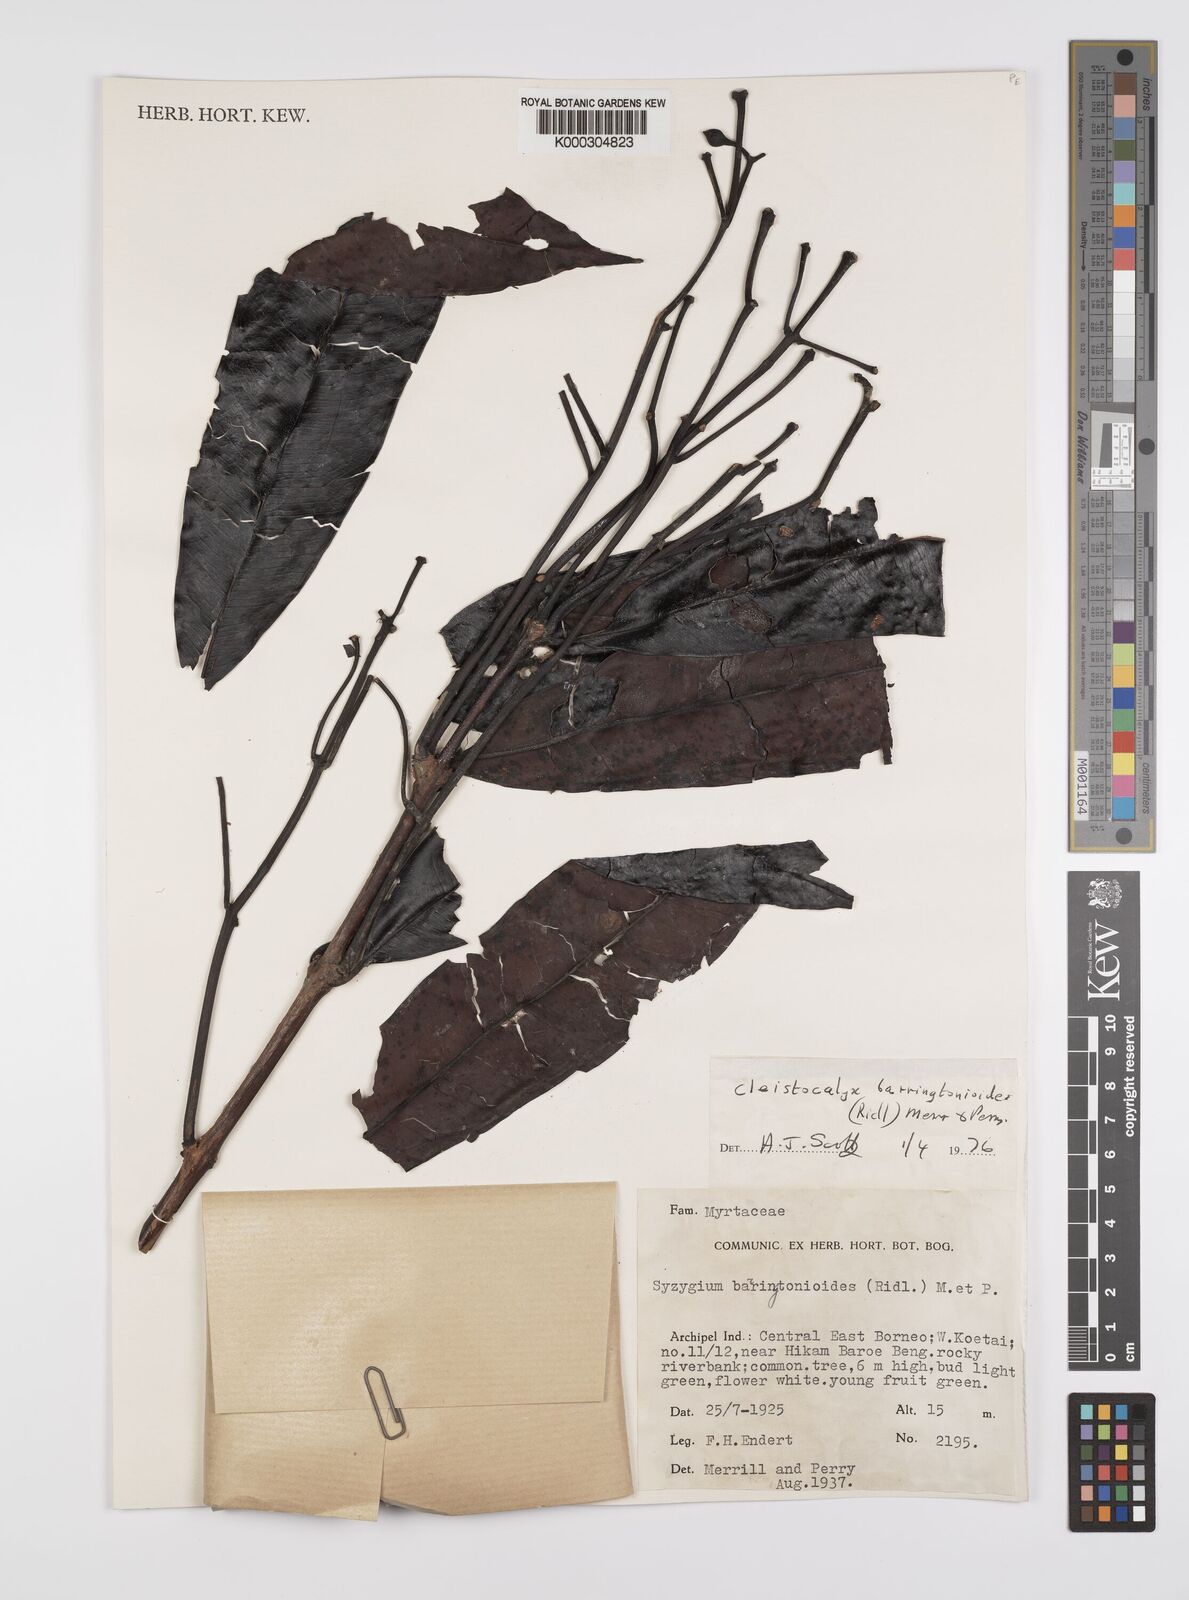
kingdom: Plantae
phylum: Tracheophyta
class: Magnoliopsida
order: Myrtales
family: Myrtaceae
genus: Syzygium
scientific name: Syzygium barringtonioides
